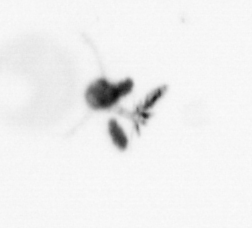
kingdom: Animalia
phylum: Arthropoda
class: Copepoda
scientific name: Copepoda
